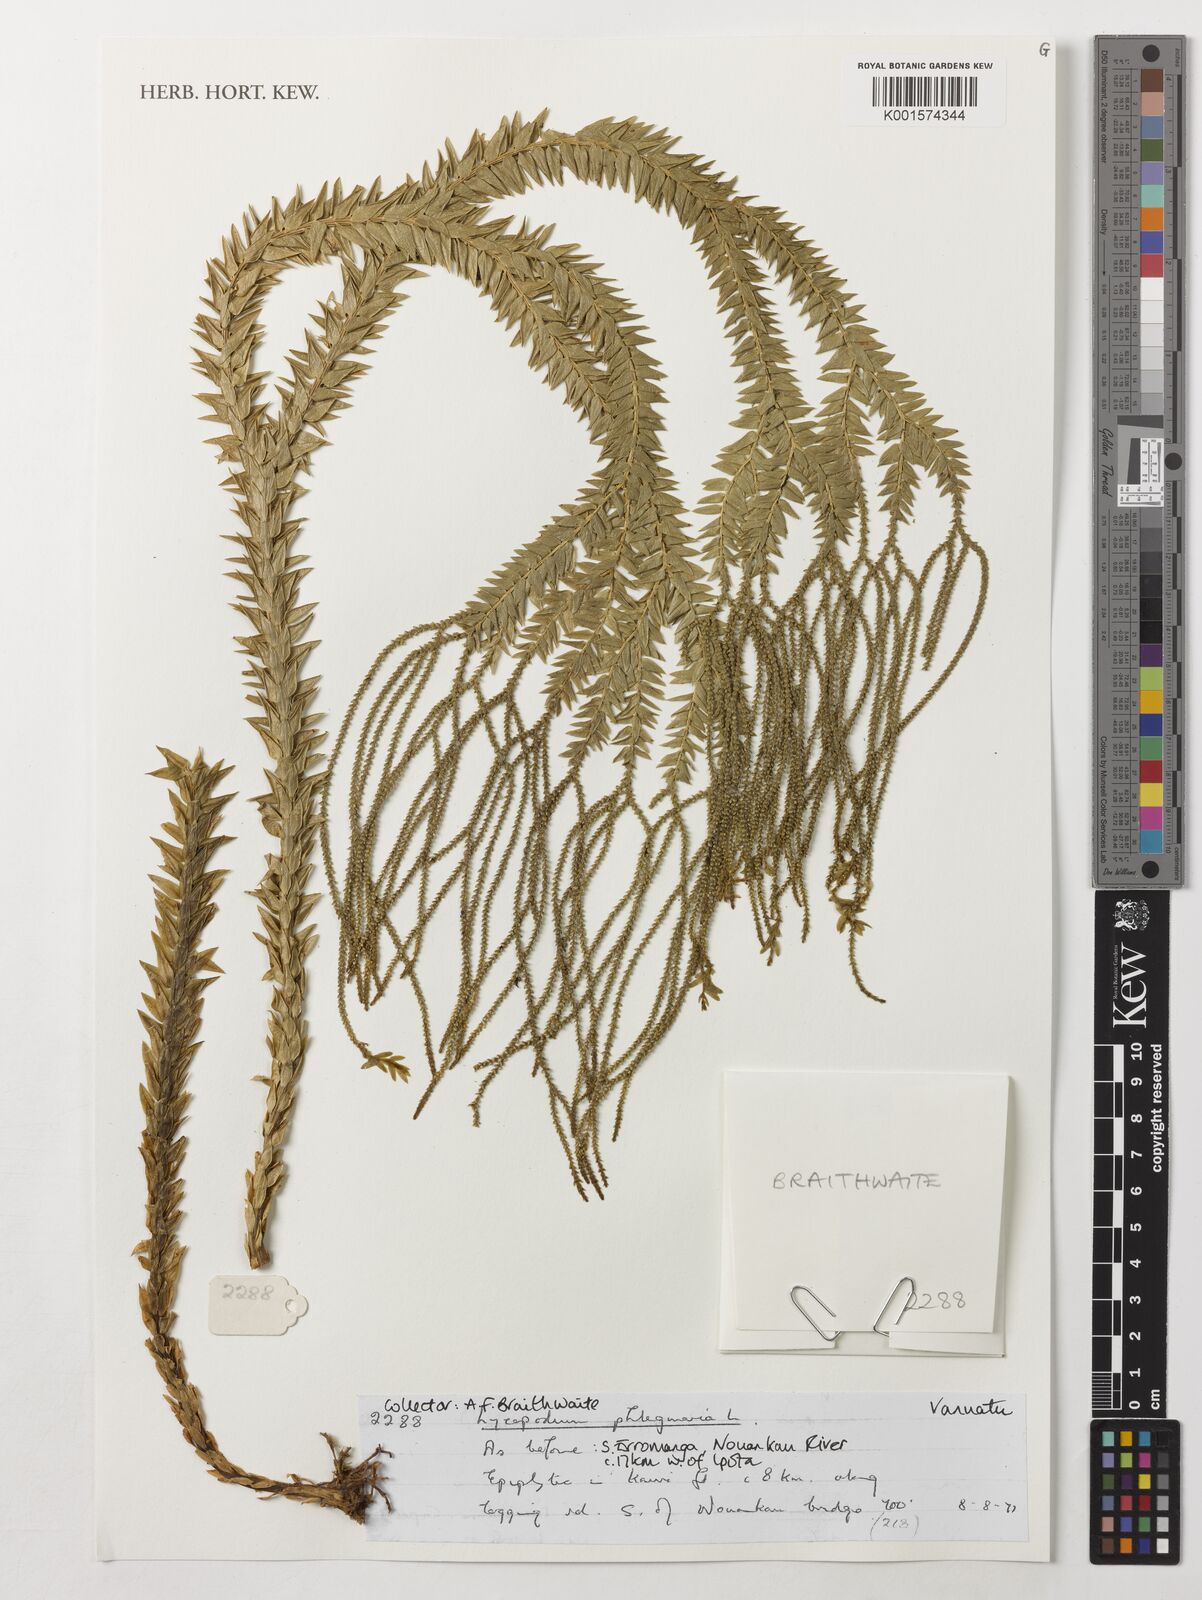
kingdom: Plantae
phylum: Tracheophyta
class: Lycopodiopsida
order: Lycopodiales
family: Lycopodiaceae
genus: Phlegmariurus
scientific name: Phlegmariurus phlegmaria
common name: Coarse tassel-fern
